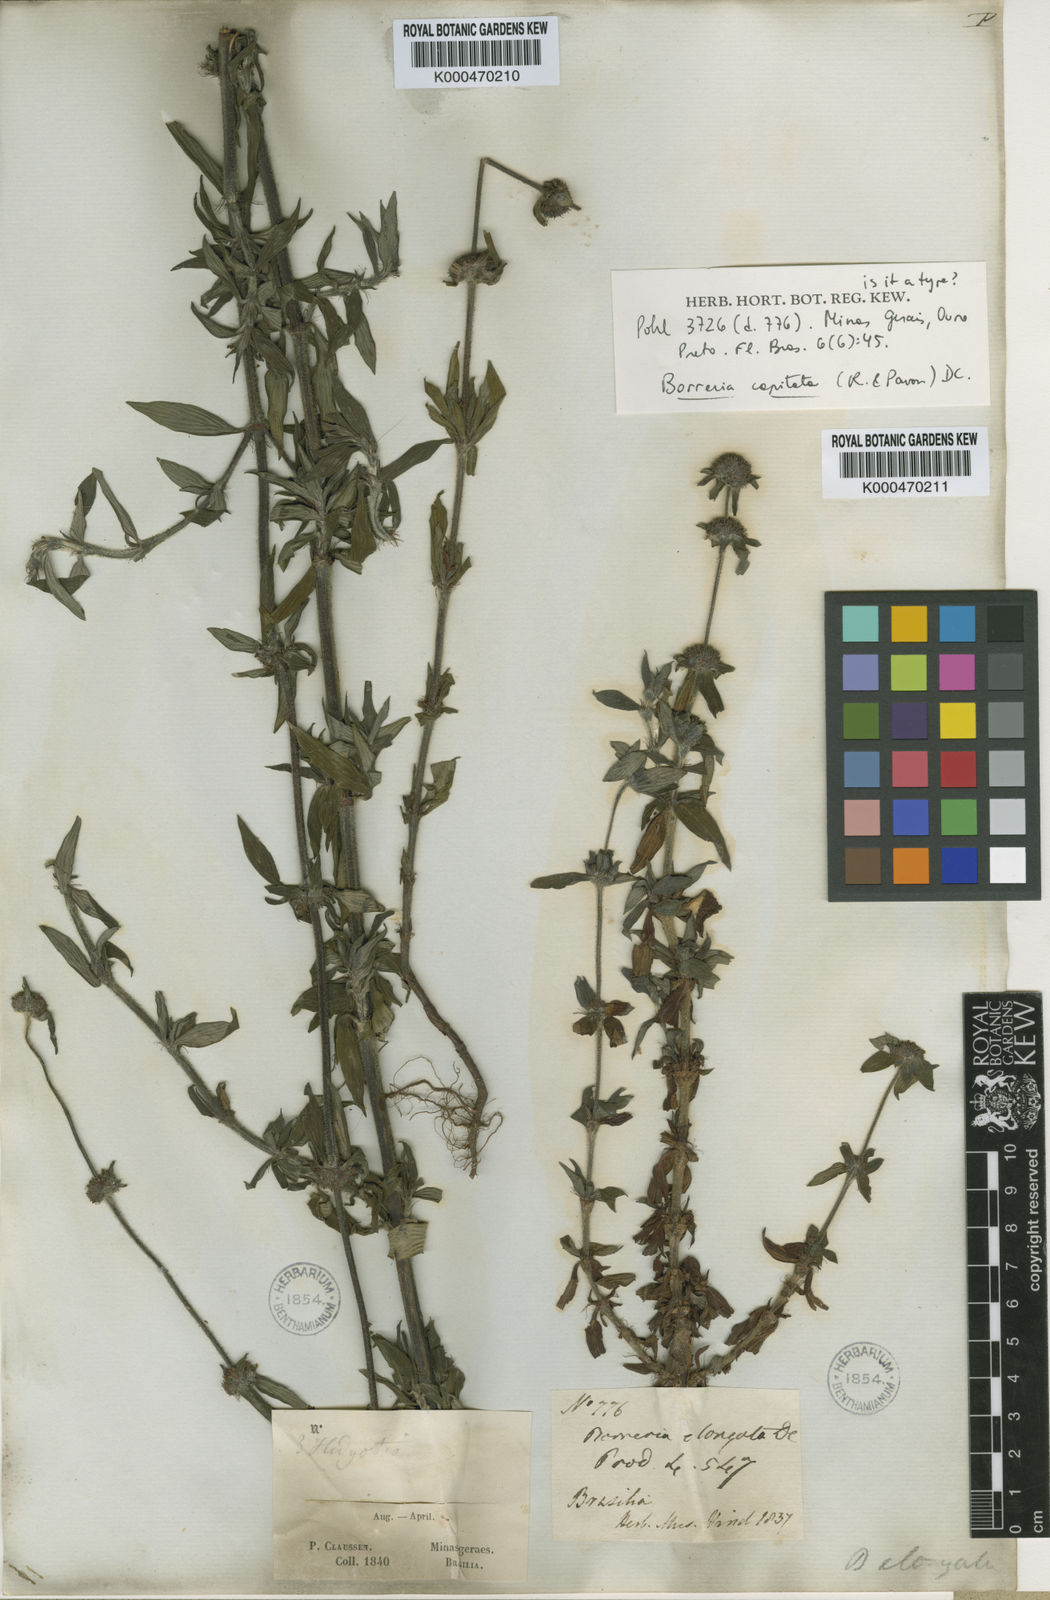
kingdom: Plantae
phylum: Tracheophyta
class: Magnoliopsida
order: Gentianales
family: Rubiaceae
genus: Spermacoce
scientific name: Spermacoce capitata
